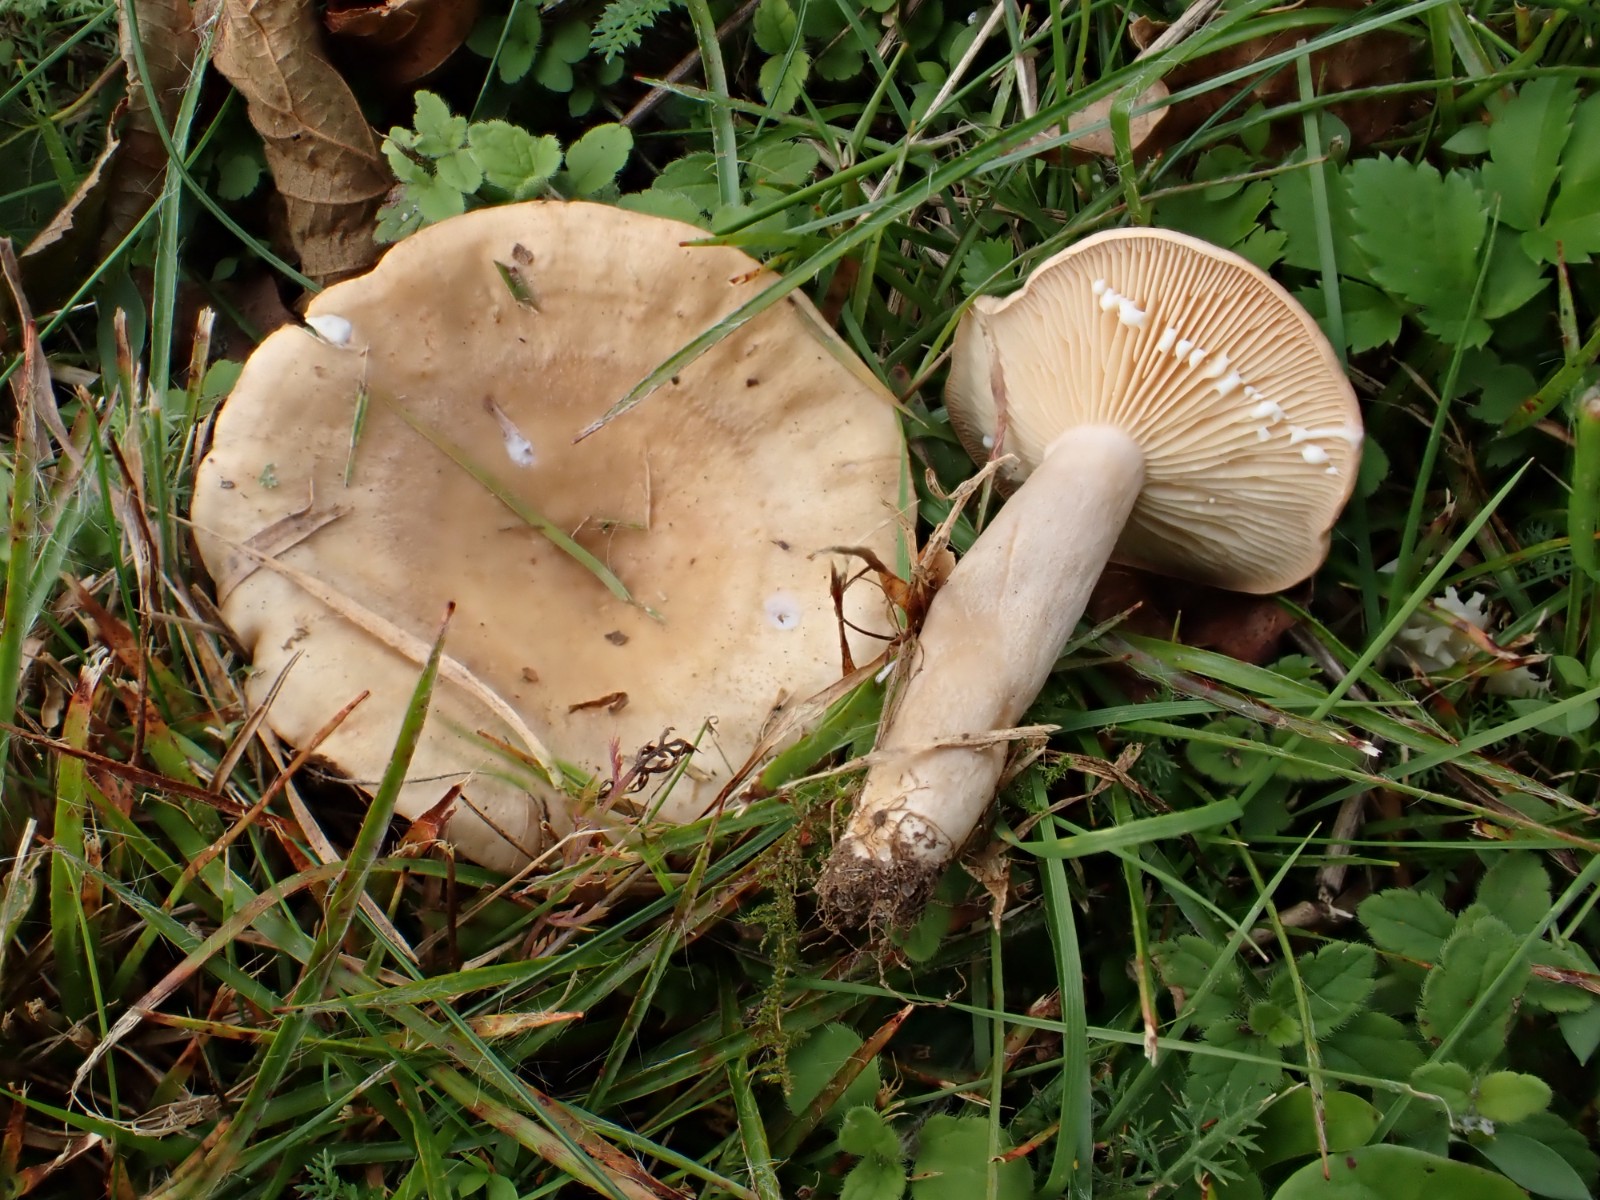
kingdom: Fungi
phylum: Basidiomycota
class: Agaricomycetes
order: Russulales
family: Russulaceae
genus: Lactarius
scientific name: Lactarius pyrogalus
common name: hassel-mælkehat
